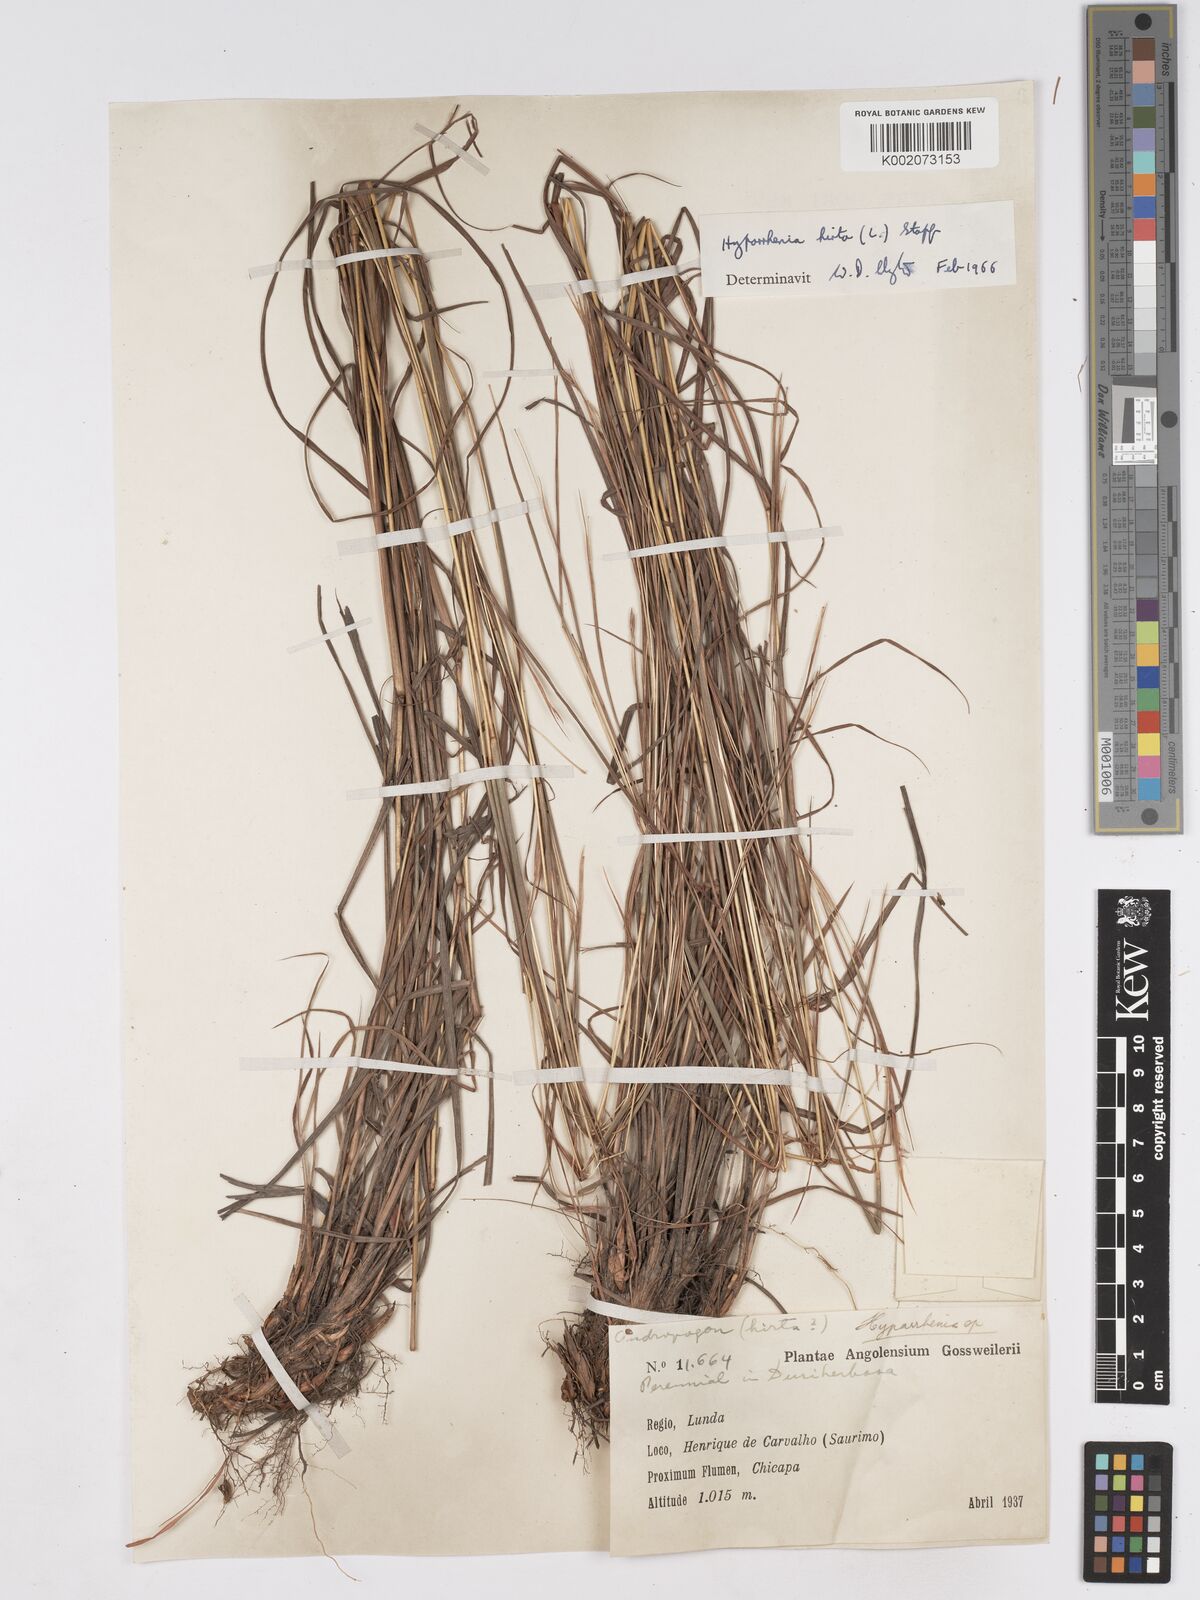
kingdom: Plantae
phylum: Tracheophyta
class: Liliopsida
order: Poales
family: Poaceae
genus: Hyparrhenia
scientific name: Hyparrhenia hirta
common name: Thatching grass
